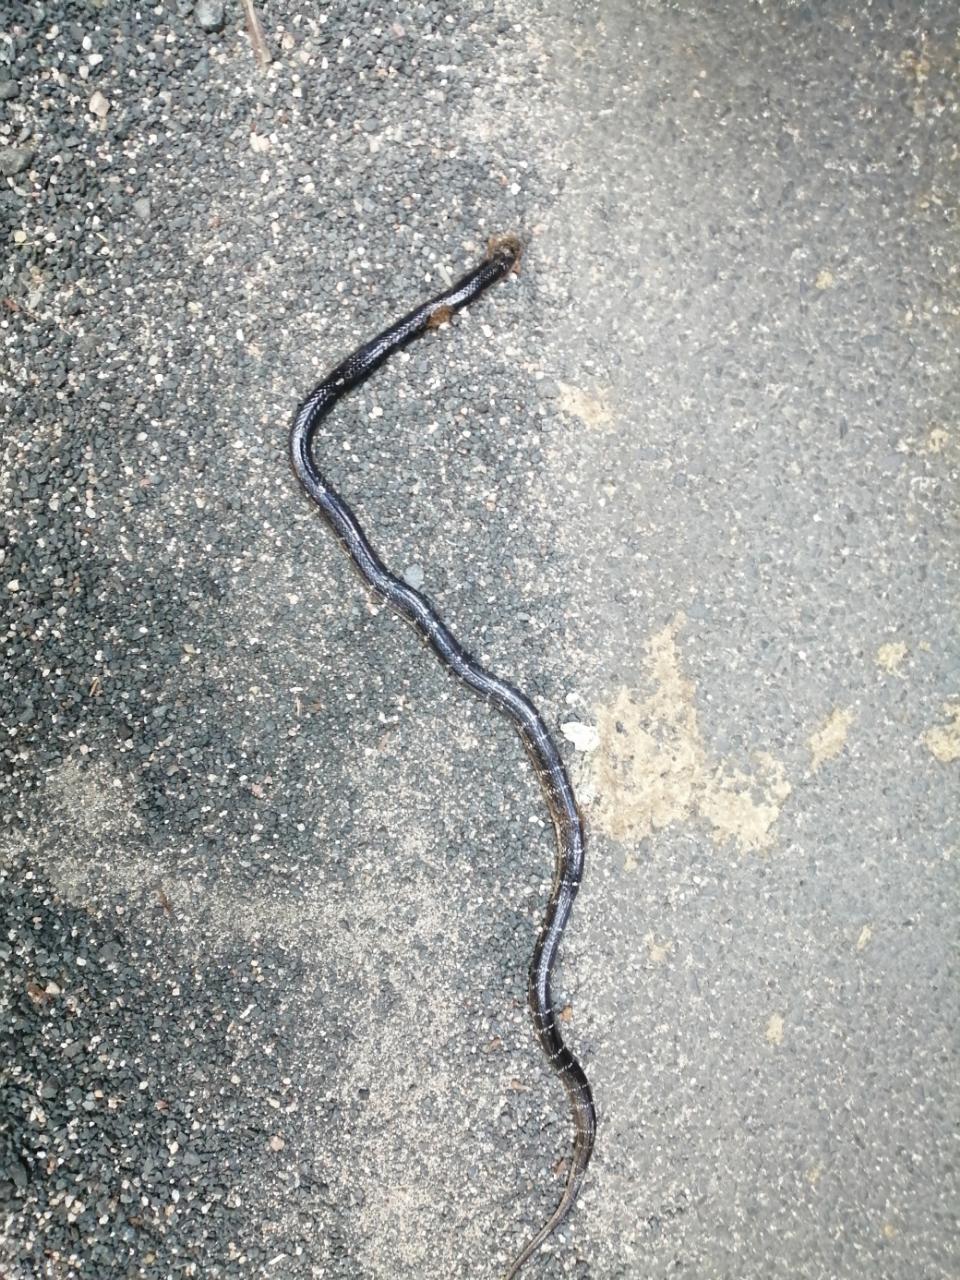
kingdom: Animalia
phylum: Chordata
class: Squamata
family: Elapidae
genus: Bungarus
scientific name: Bungarus caeruleus
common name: Common krait
